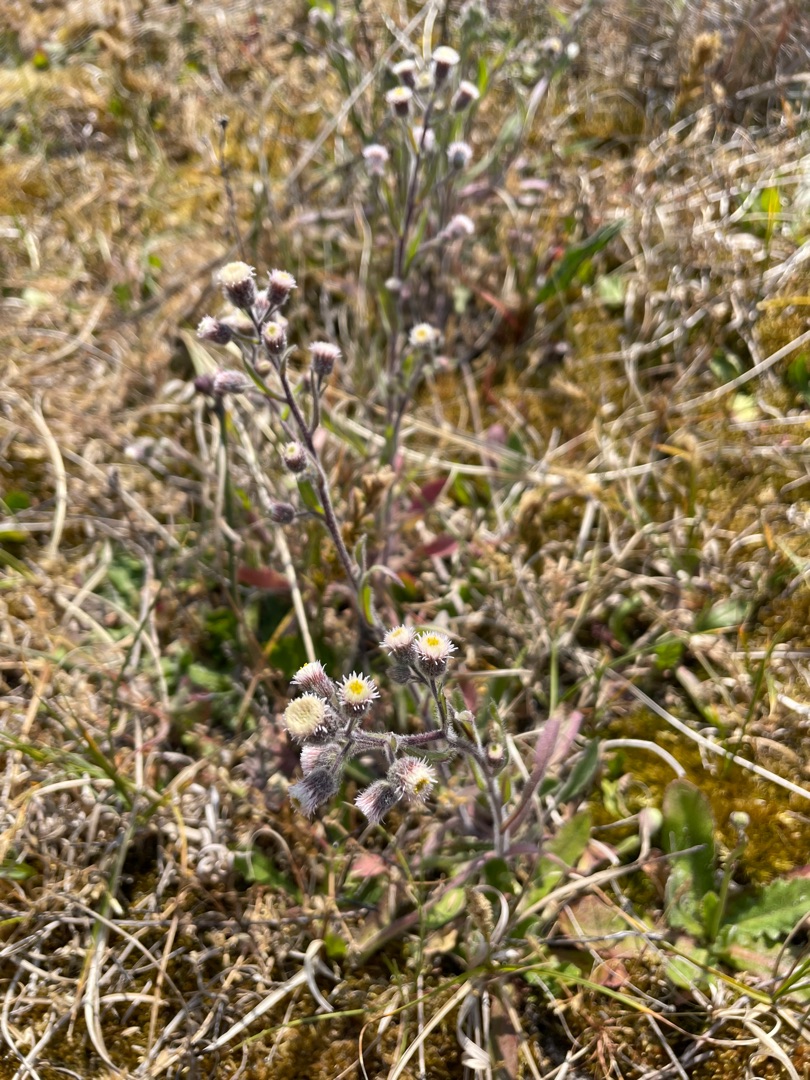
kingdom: Plantae
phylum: Tracheophyta
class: Magnoliopsida
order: Asterales
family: Asteraceae
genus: Erigeron
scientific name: Erigeron acris
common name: Bitter bakkestjerne
